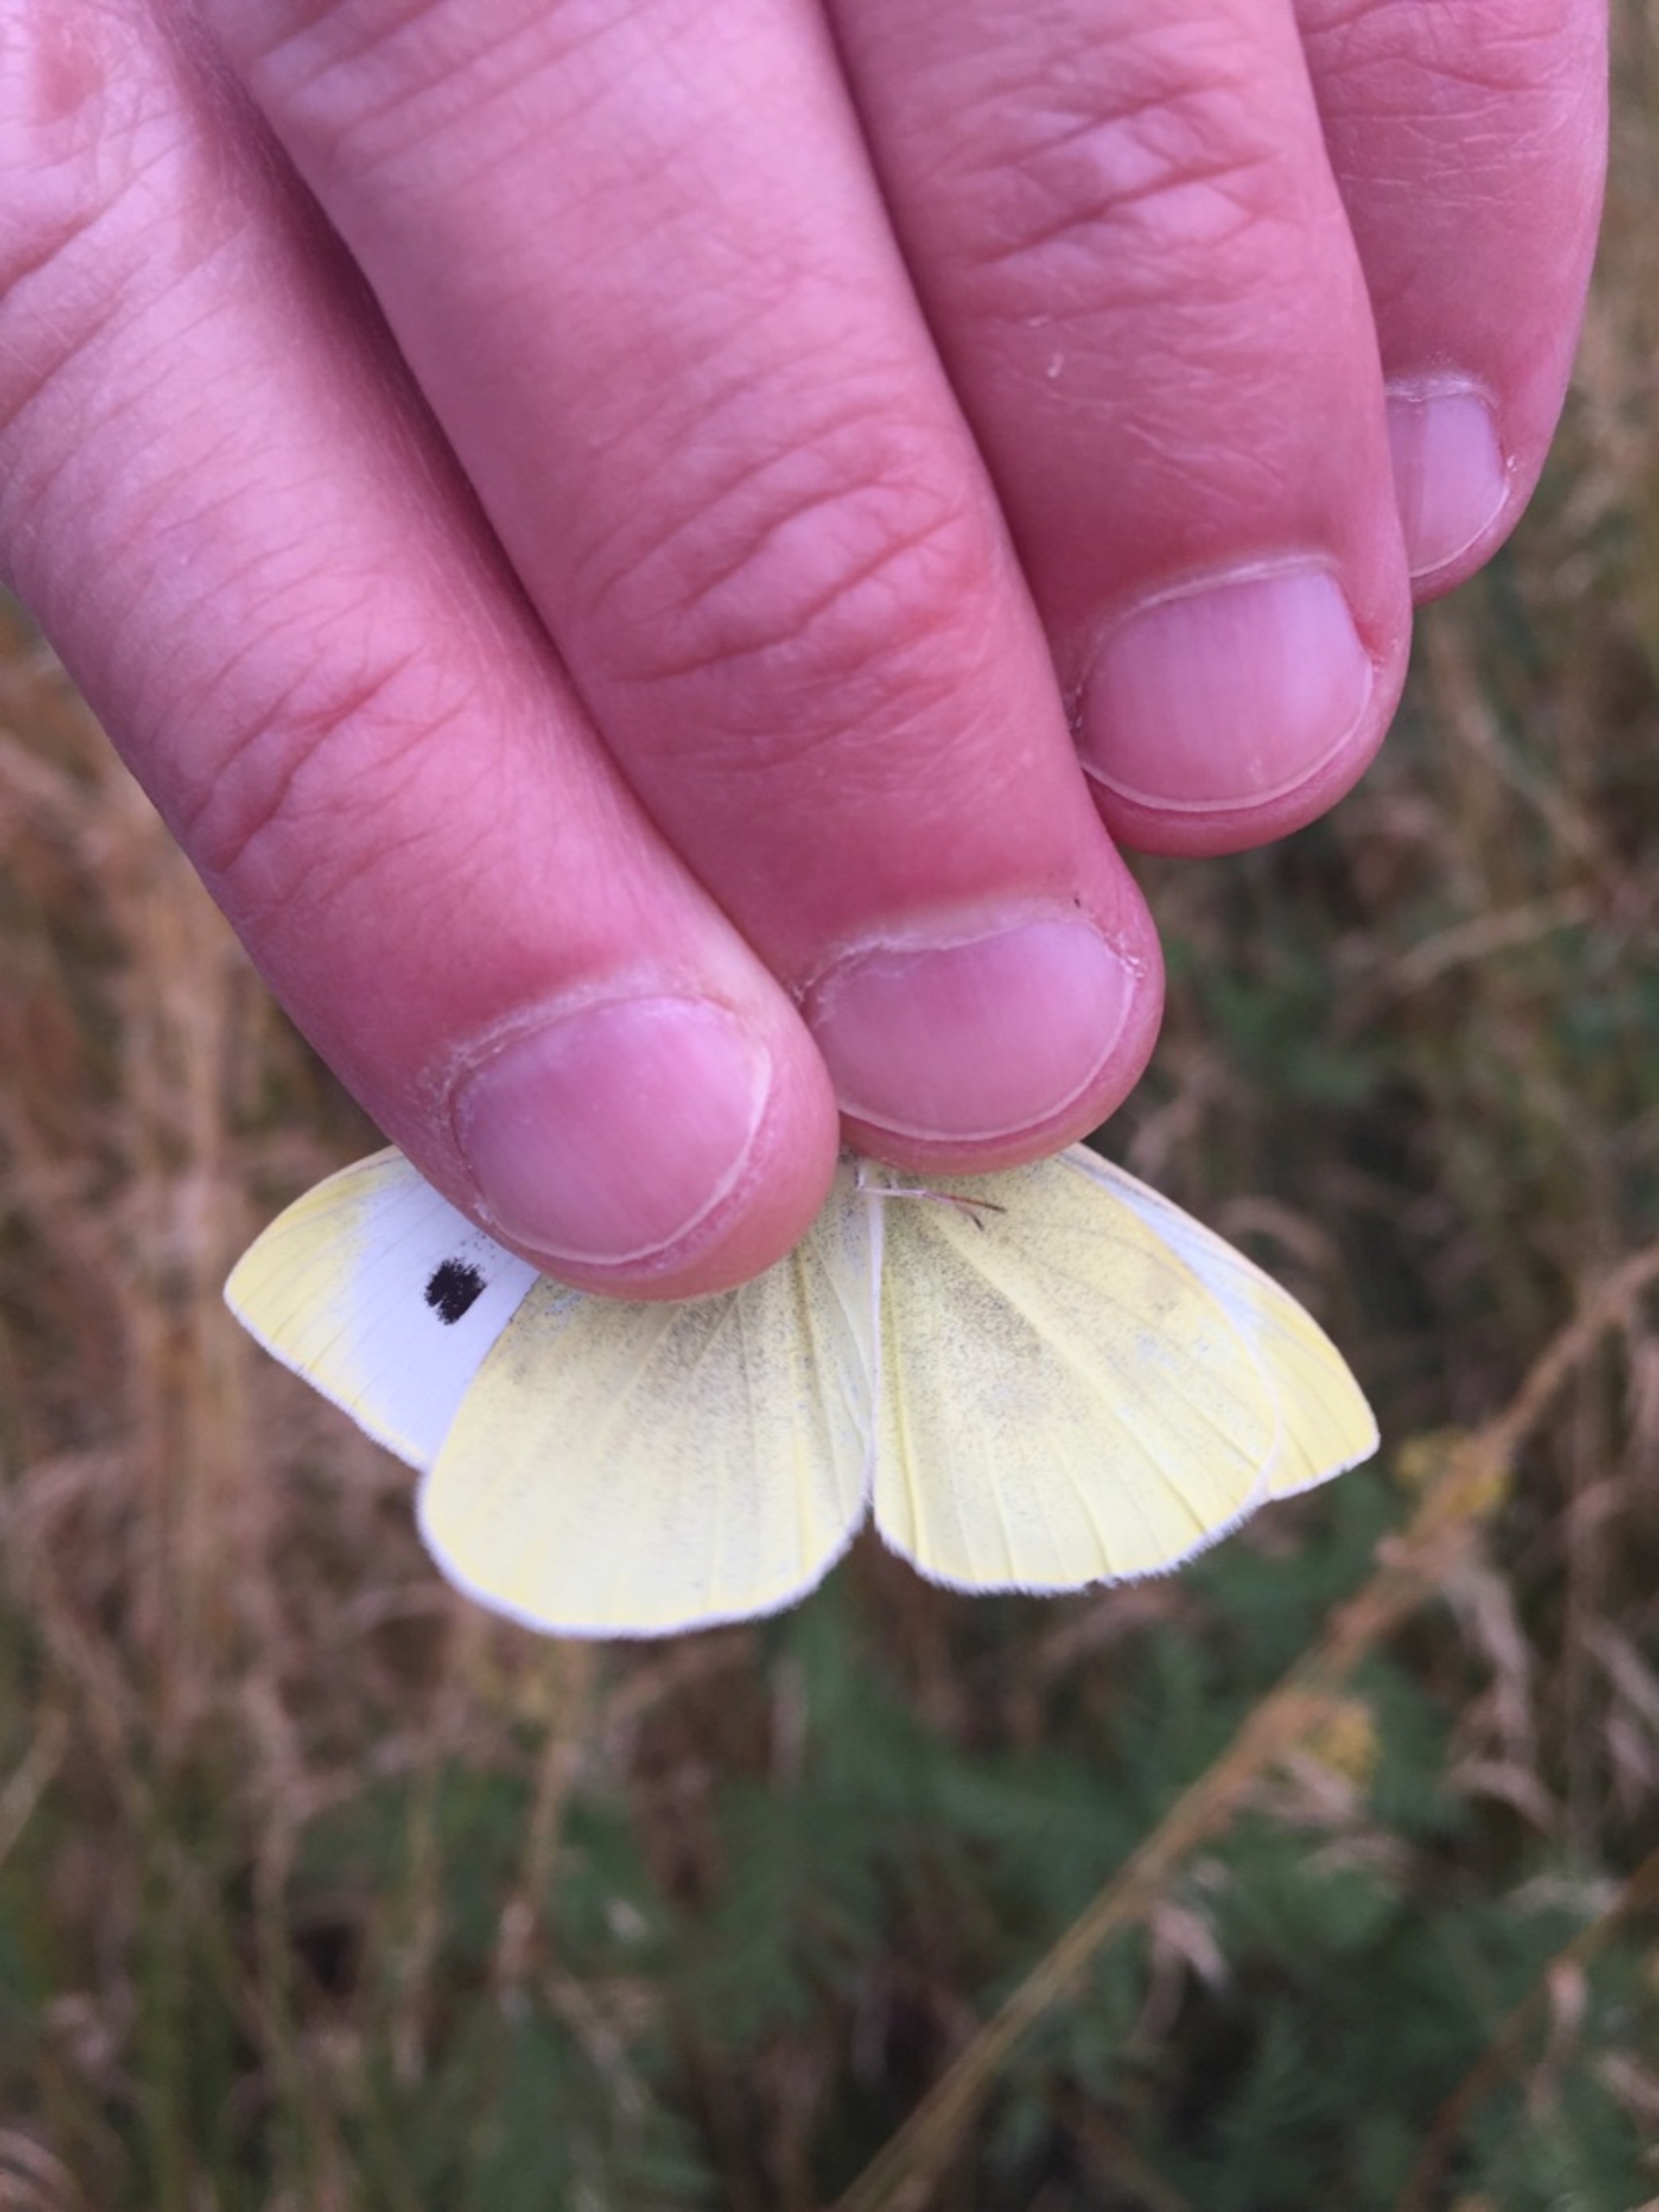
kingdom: Animalia
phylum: Arthropoda
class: Insecta
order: Lepidoptera
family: Pieridae
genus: Pieris
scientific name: Pieris rapae
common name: Lille kålsommerfugl
